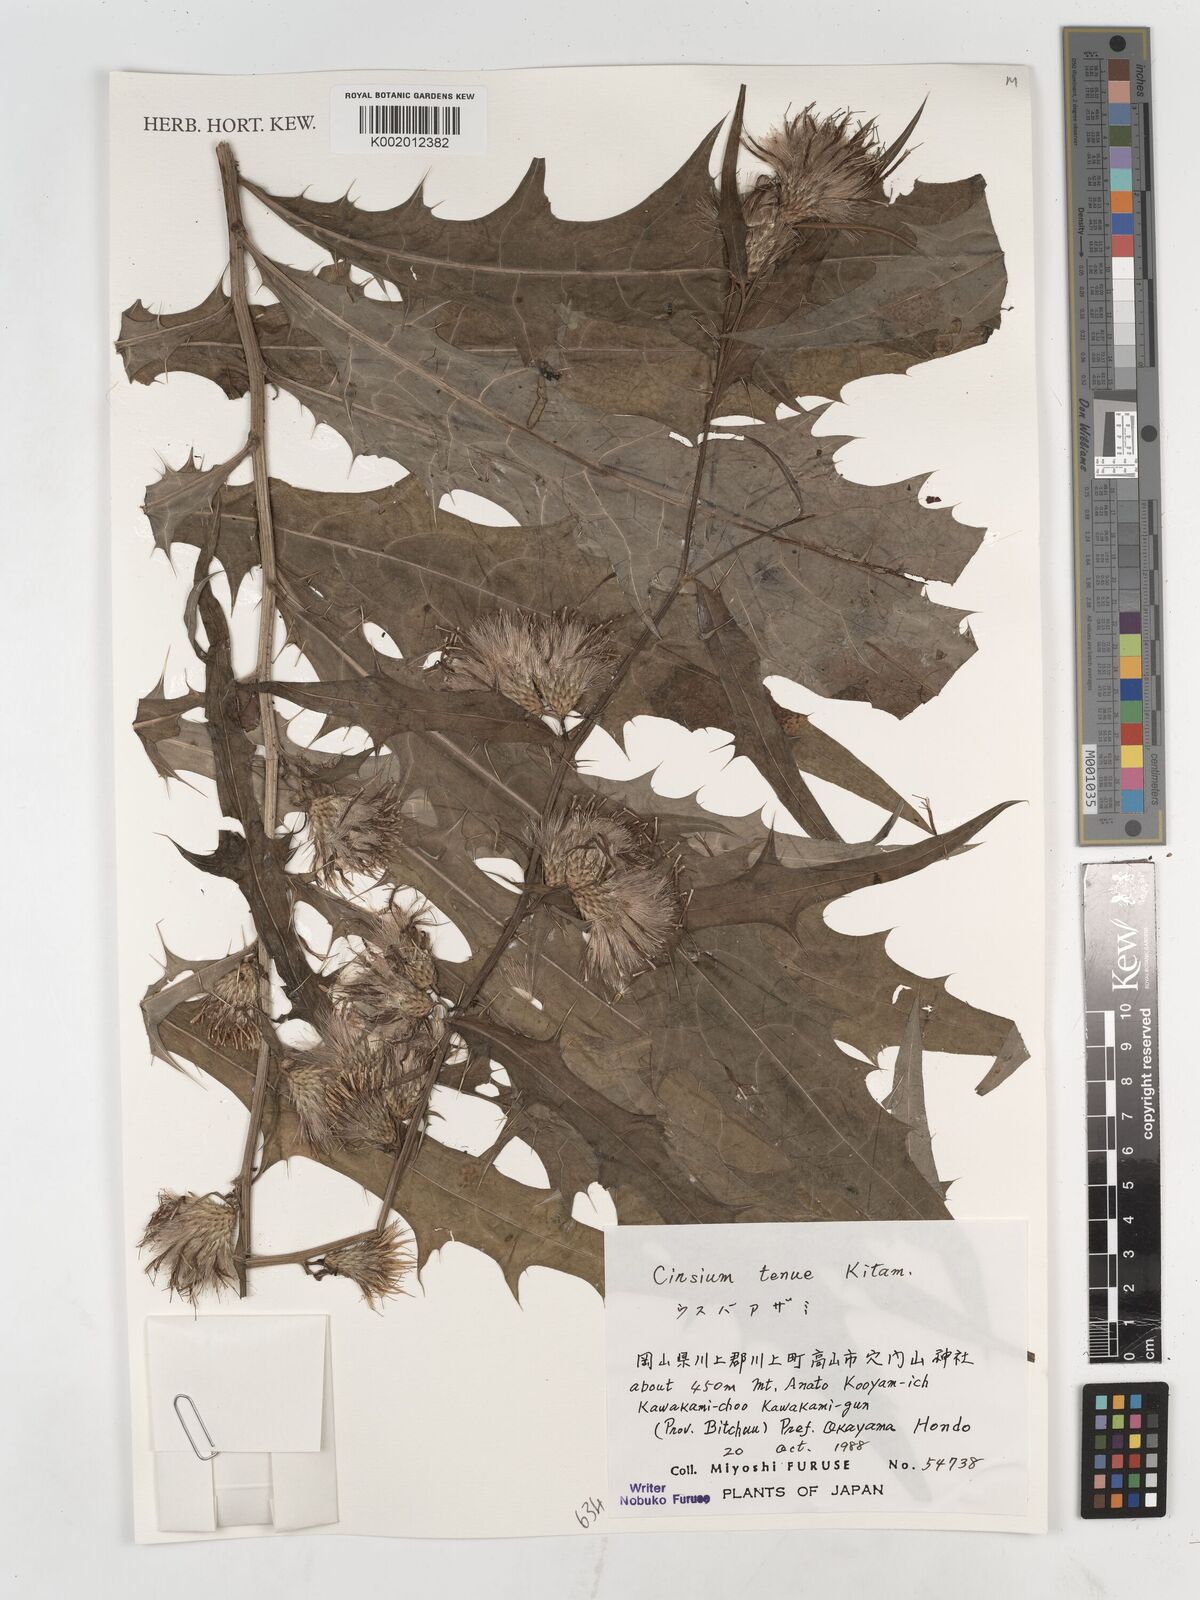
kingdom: Plantae
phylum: Tracheophyta
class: Magnoliopsida
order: Asterales
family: Asteraceae
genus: Cirsium
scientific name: Cirsium ishizuchiense
